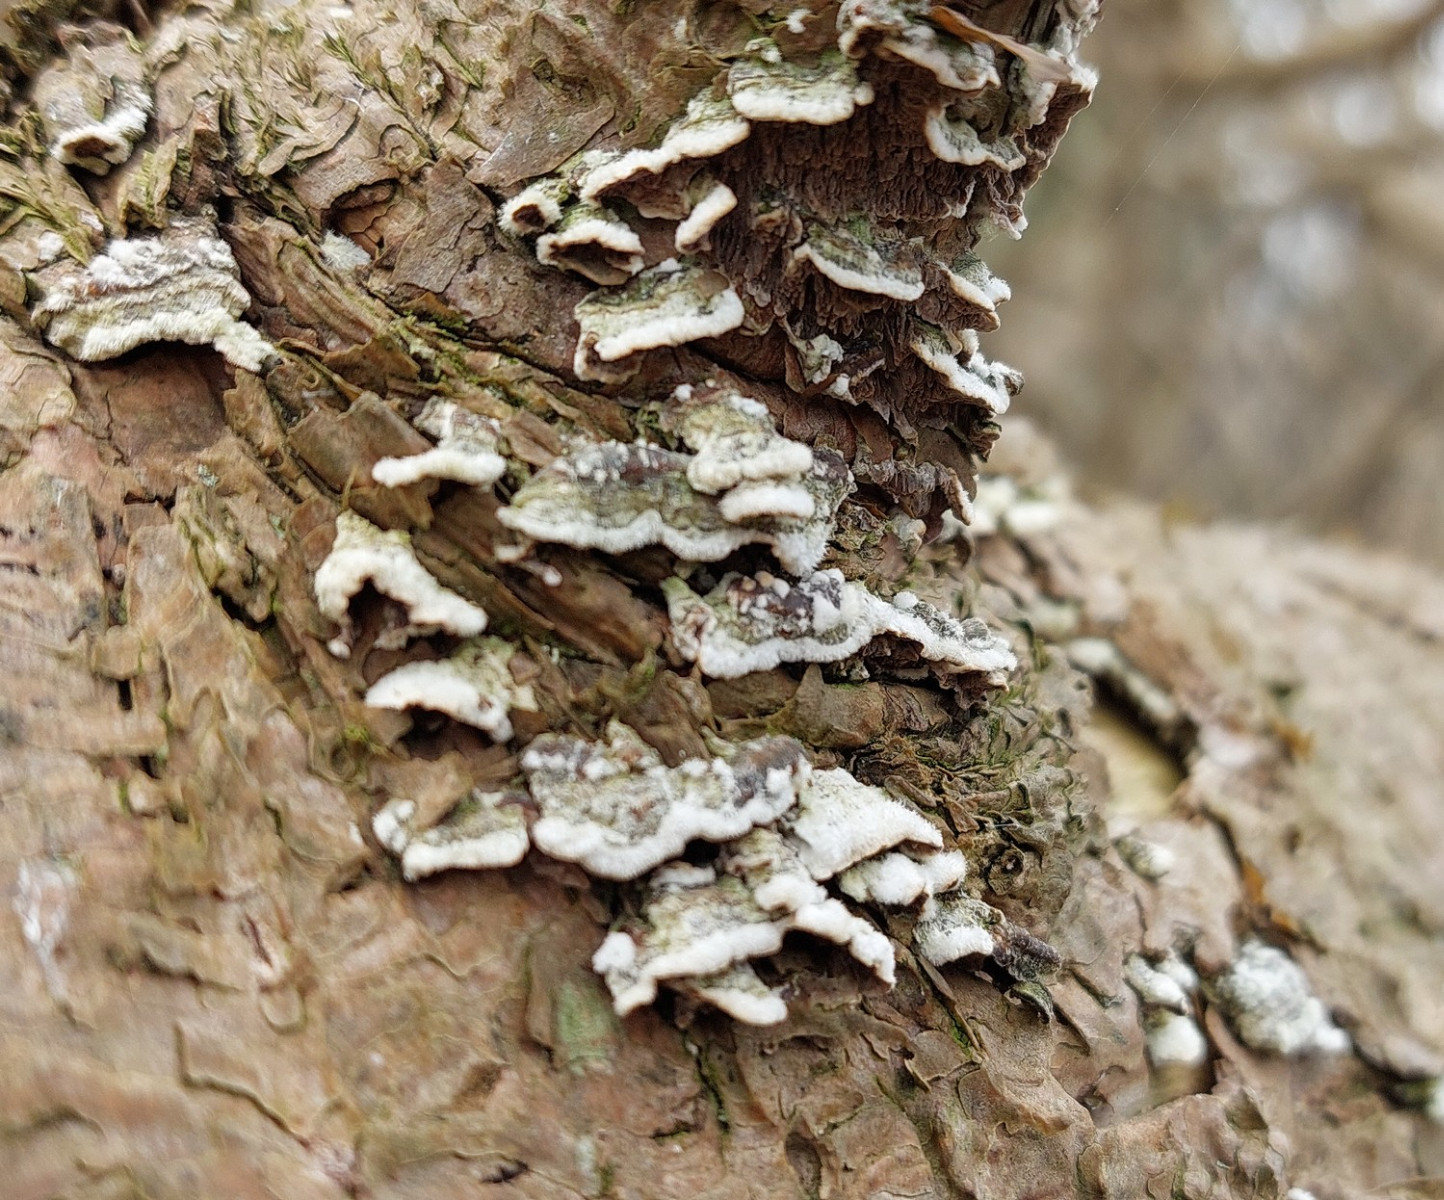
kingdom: Fungi
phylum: Basidiomycota
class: Agaricomycetes
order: Hymenochaetales
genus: Trichaptum
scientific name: Trichaptum fuscoviolaceum
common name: tandet violporesvamp
